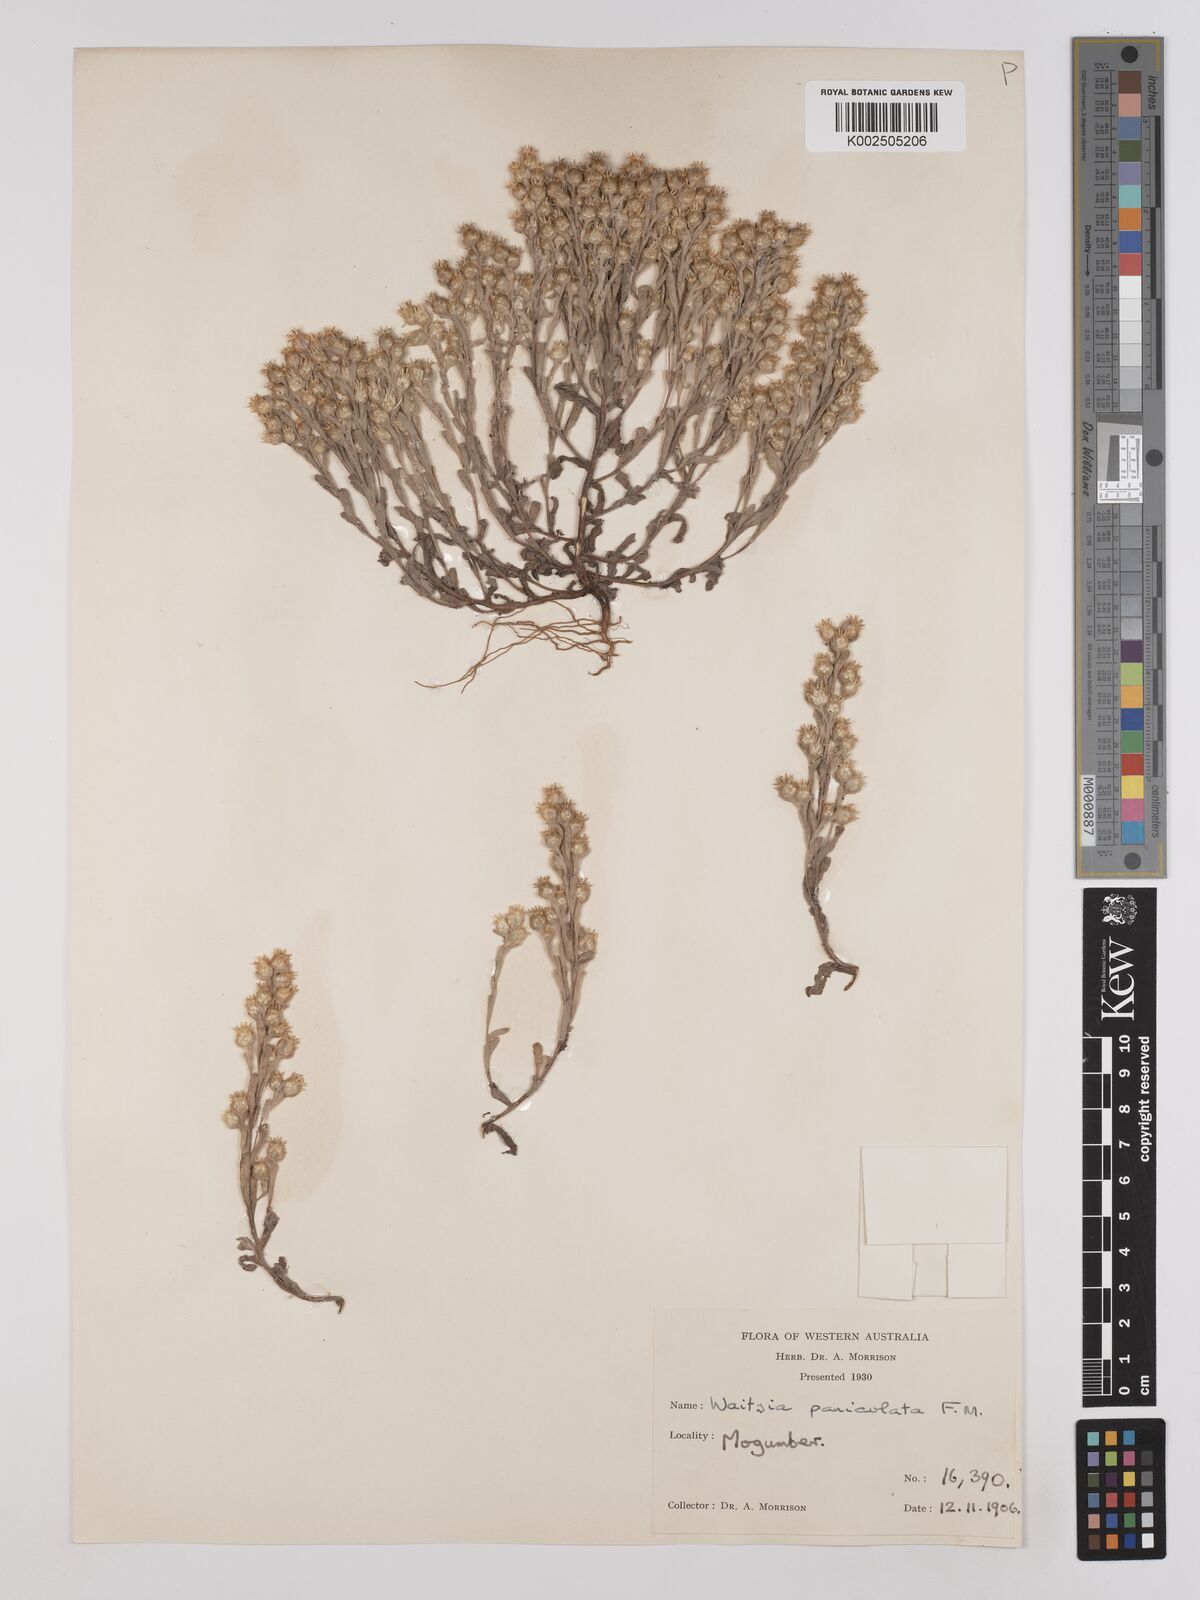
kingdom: Plantae
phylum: Tracheophyta
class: Magnoliopsida
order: Asterales
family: Asteraceae
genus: Pterochaeta
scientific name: Pterochaeta paniculata
